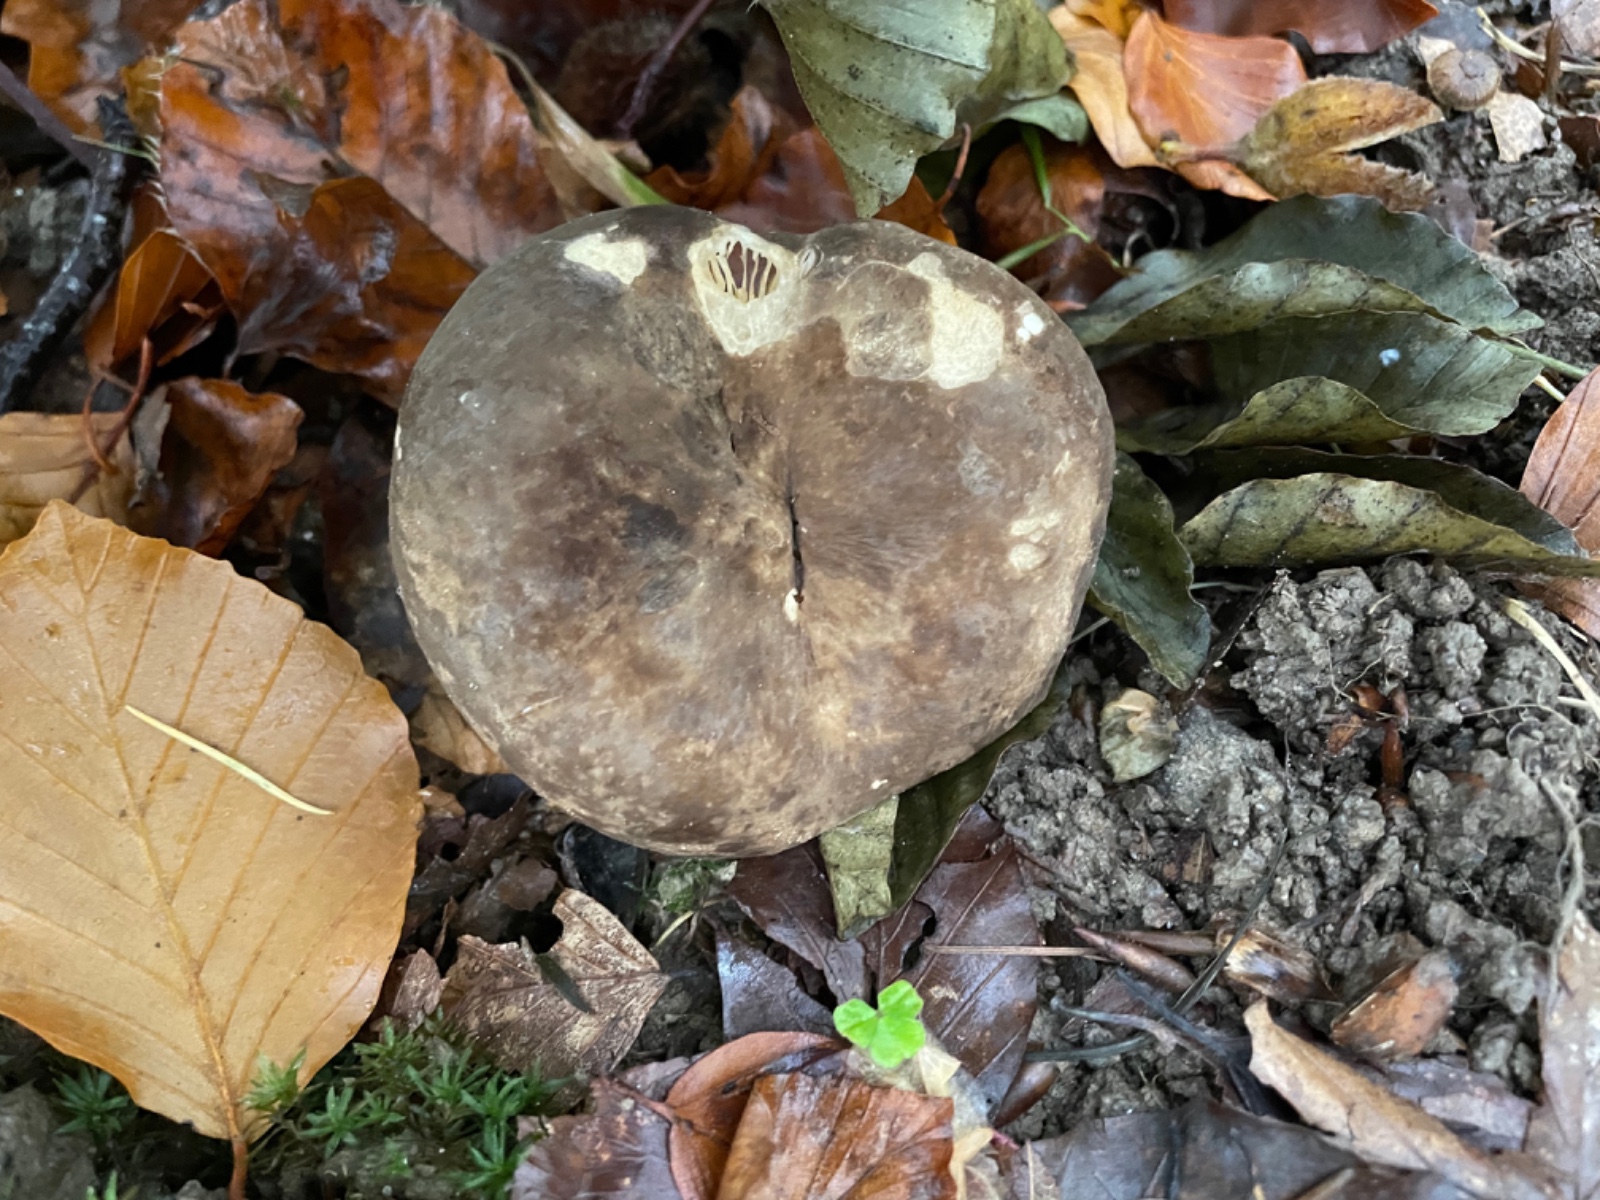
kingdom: Fungi
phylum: Basidiomycota
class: Agaricomycetes
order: Russulales
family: Russulaceae
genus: Lactarius
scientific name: Lactarius
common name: mælkehat
